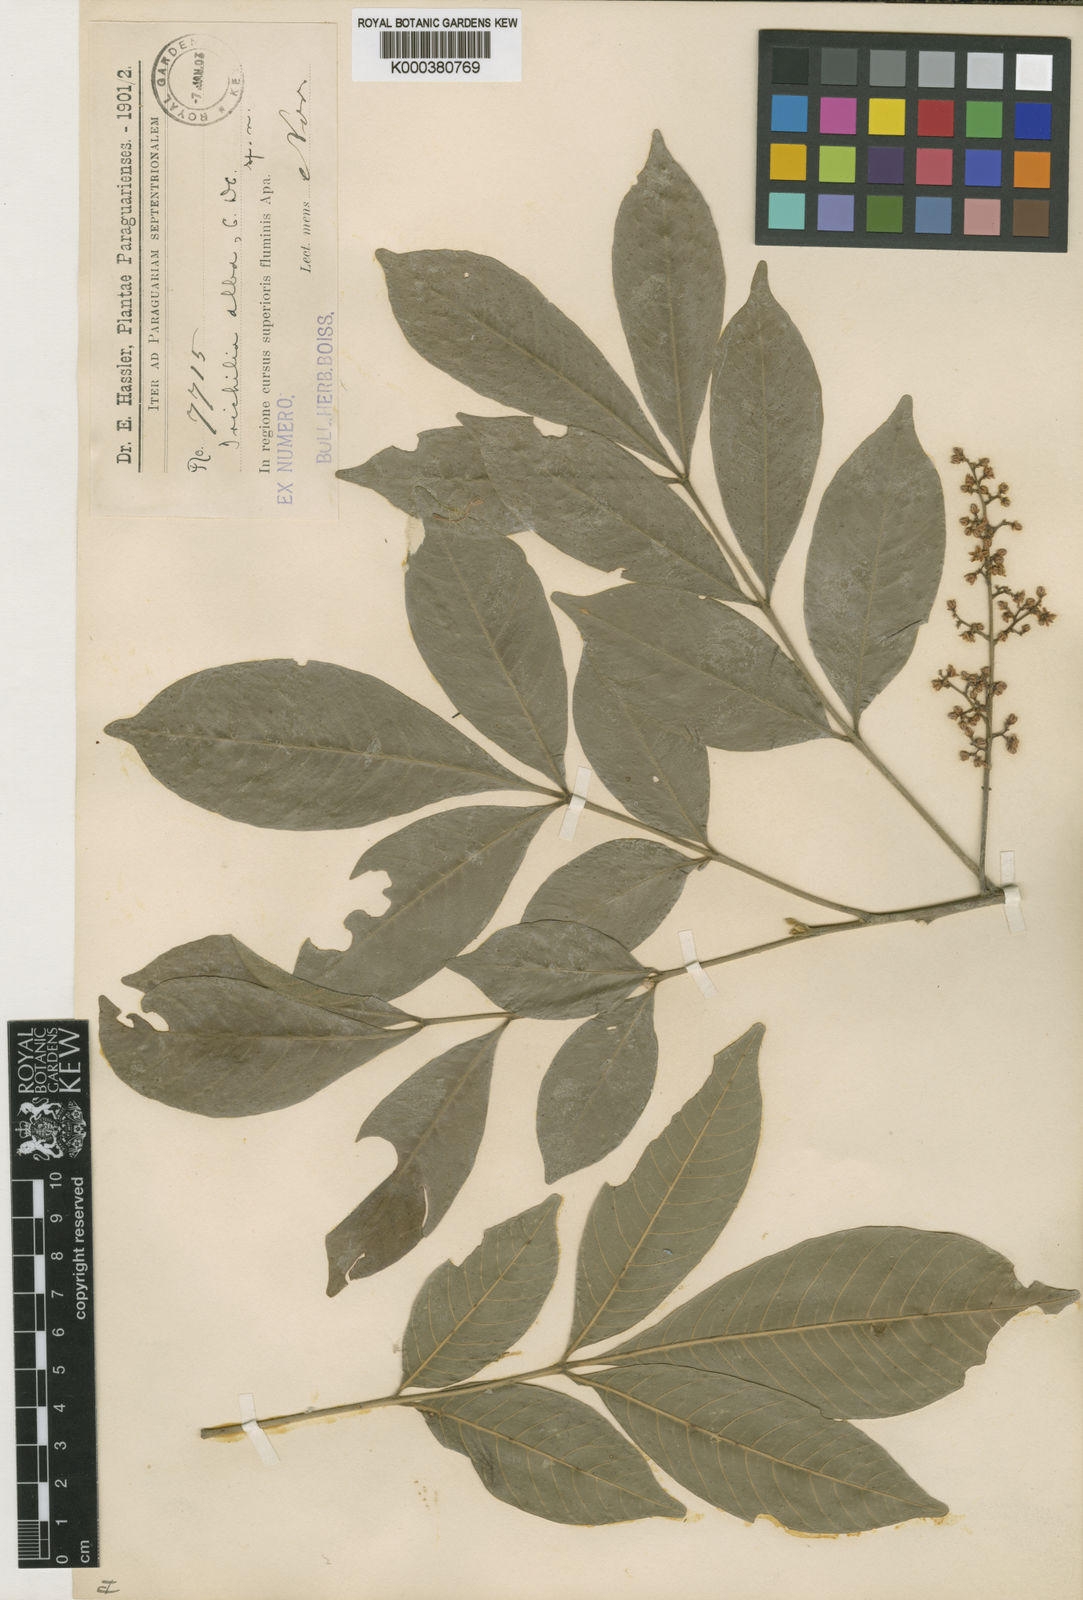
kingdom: Plantae
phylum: Tracheophyta
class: Magnoliopsida
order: Sapindales
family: Meliaceae
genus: Trichilia
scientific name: Trichilia elegans
